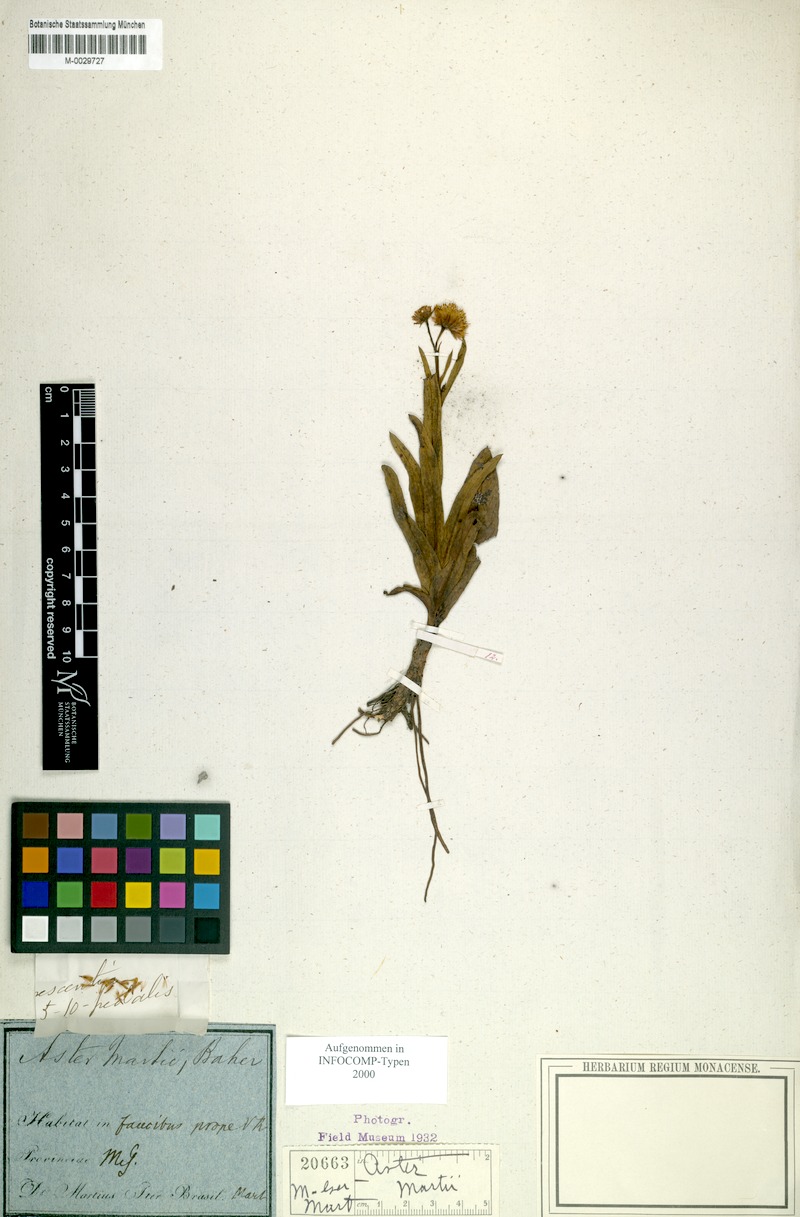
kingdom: Plantae
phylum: Tracheophyta
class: Magnoliopsida
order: Asterales
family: Asteraceae
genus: Symphyotrichum
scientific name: Symphyotrichum martii
